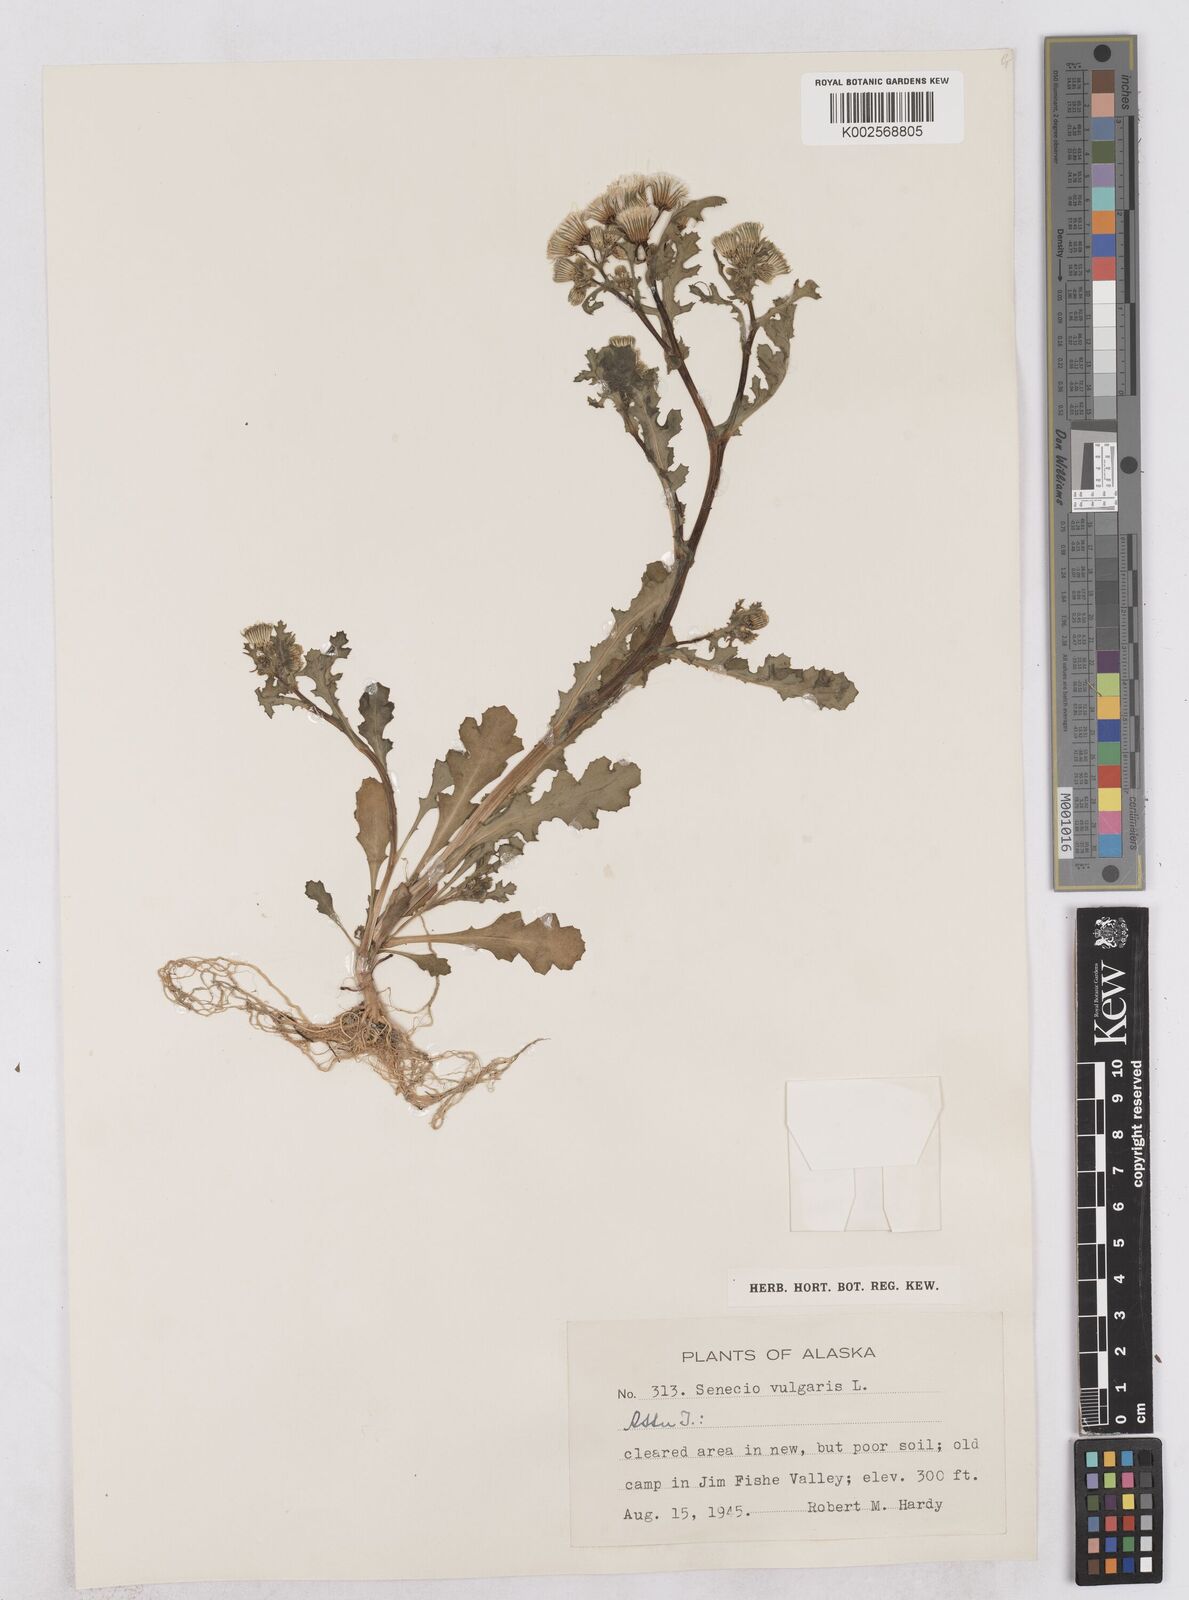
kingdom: Plantae
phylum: Tracheophyta
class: Magnoliopsida
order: Asterales
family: Asteraceae
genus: Senecio
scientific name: Senecio vulgaris
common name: Old-man-in-the-spring
